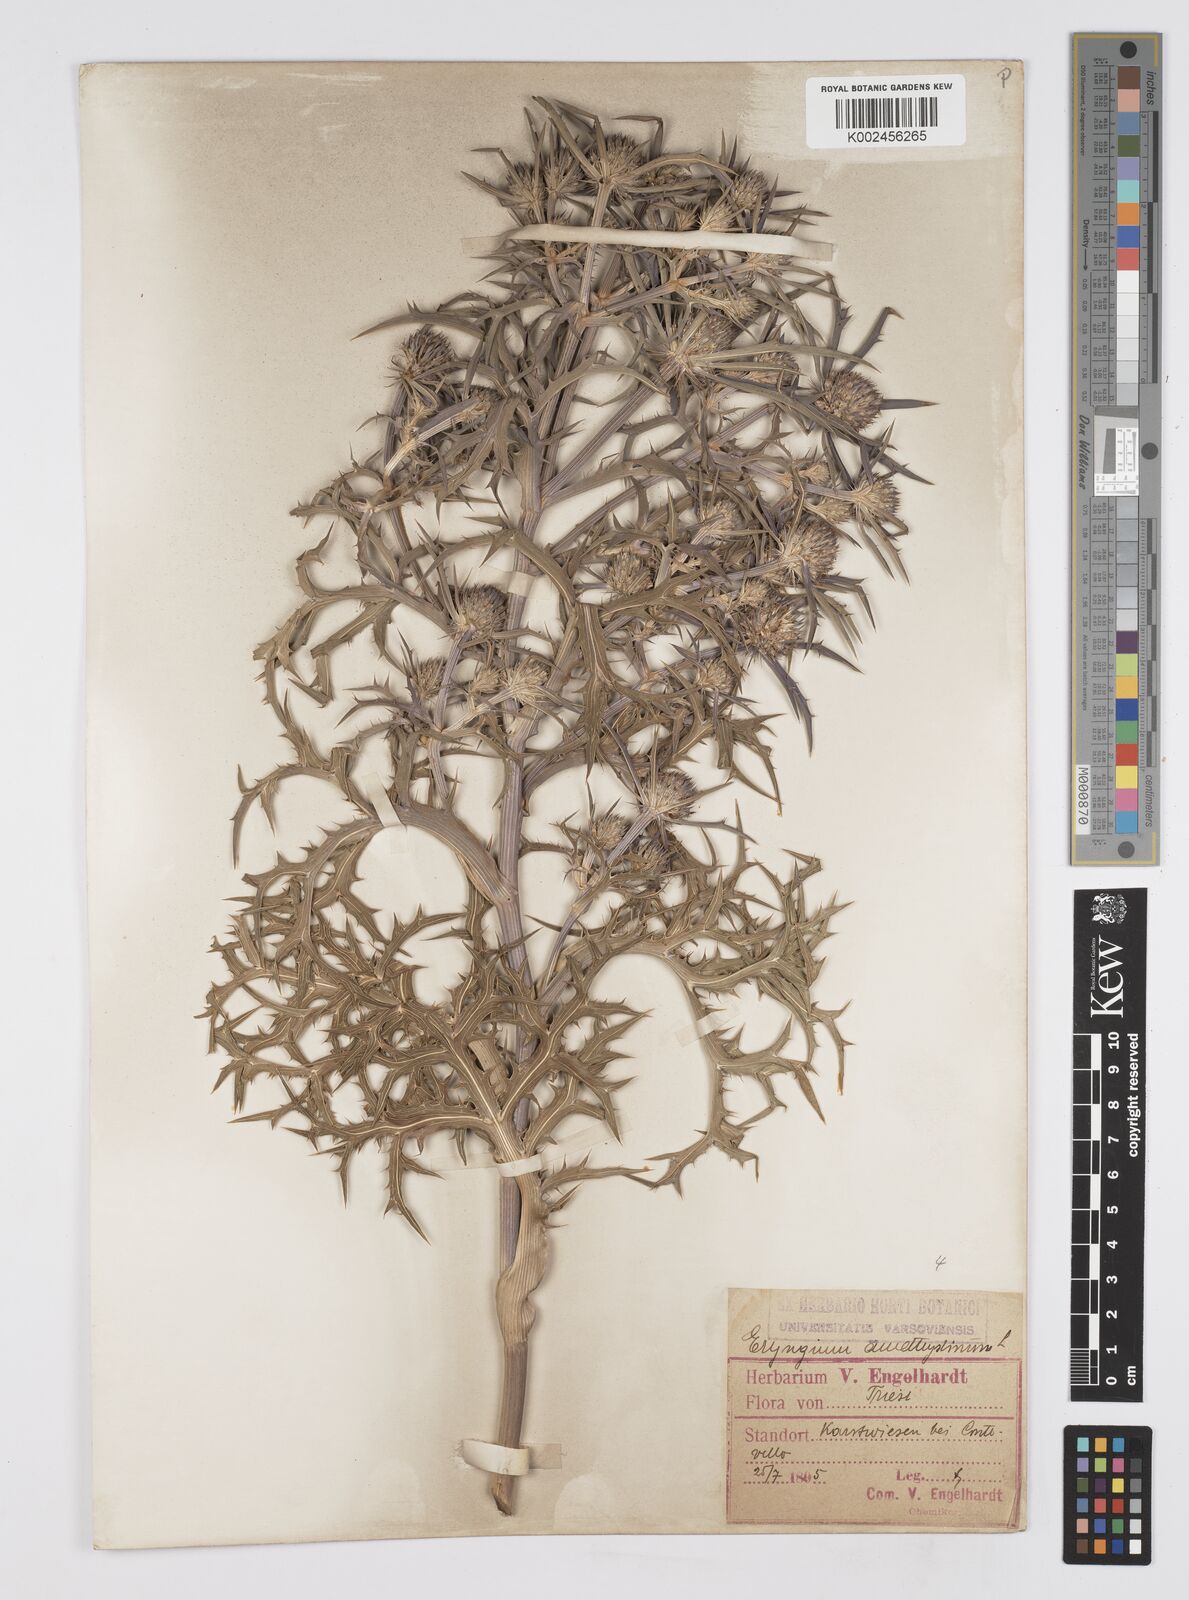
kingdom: Plantae
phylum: Tracheophyta
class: Magnoliopsida
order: Apiales
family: Apiaceae
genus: Eryngium
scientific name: Eryngium amethystinum
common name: Amethyst eryngo
